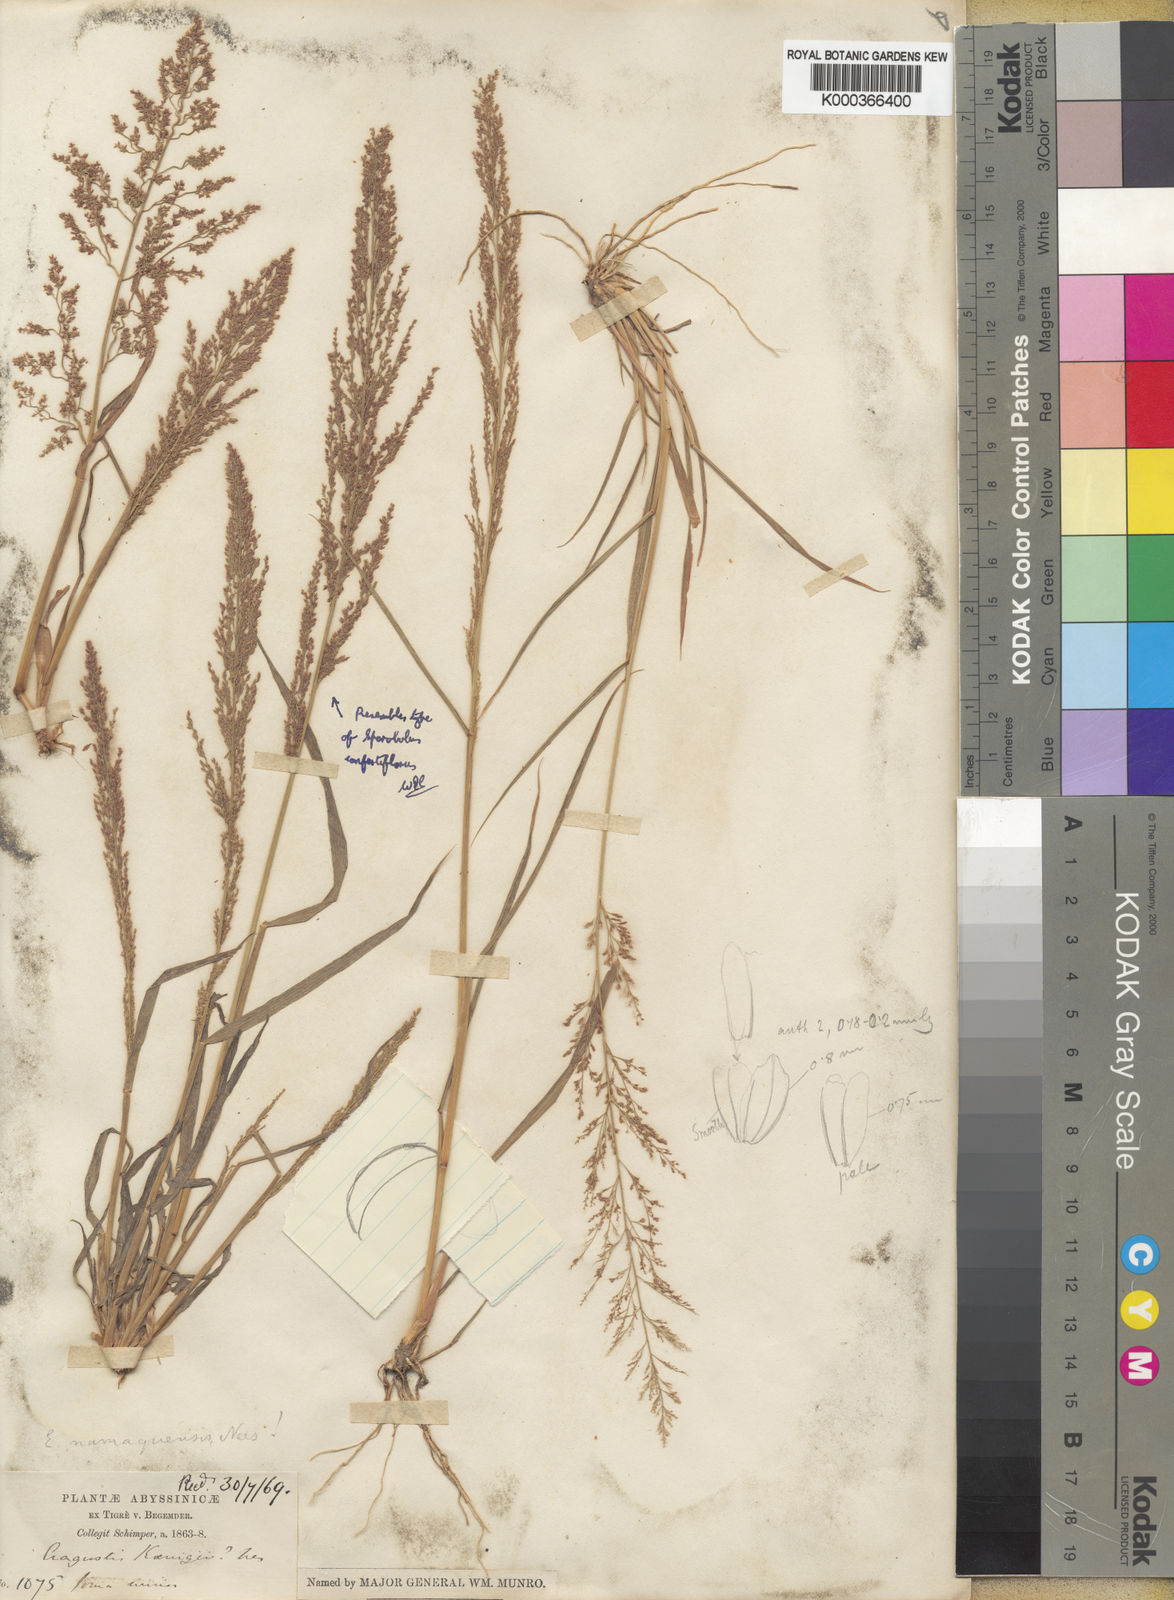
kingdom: Plantae
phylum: Tracheophyta
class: Liliopsida
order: Poales
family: Poaceae
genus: Eragrostis
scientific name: Eragrostis japonica
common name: Pond lovegrass
